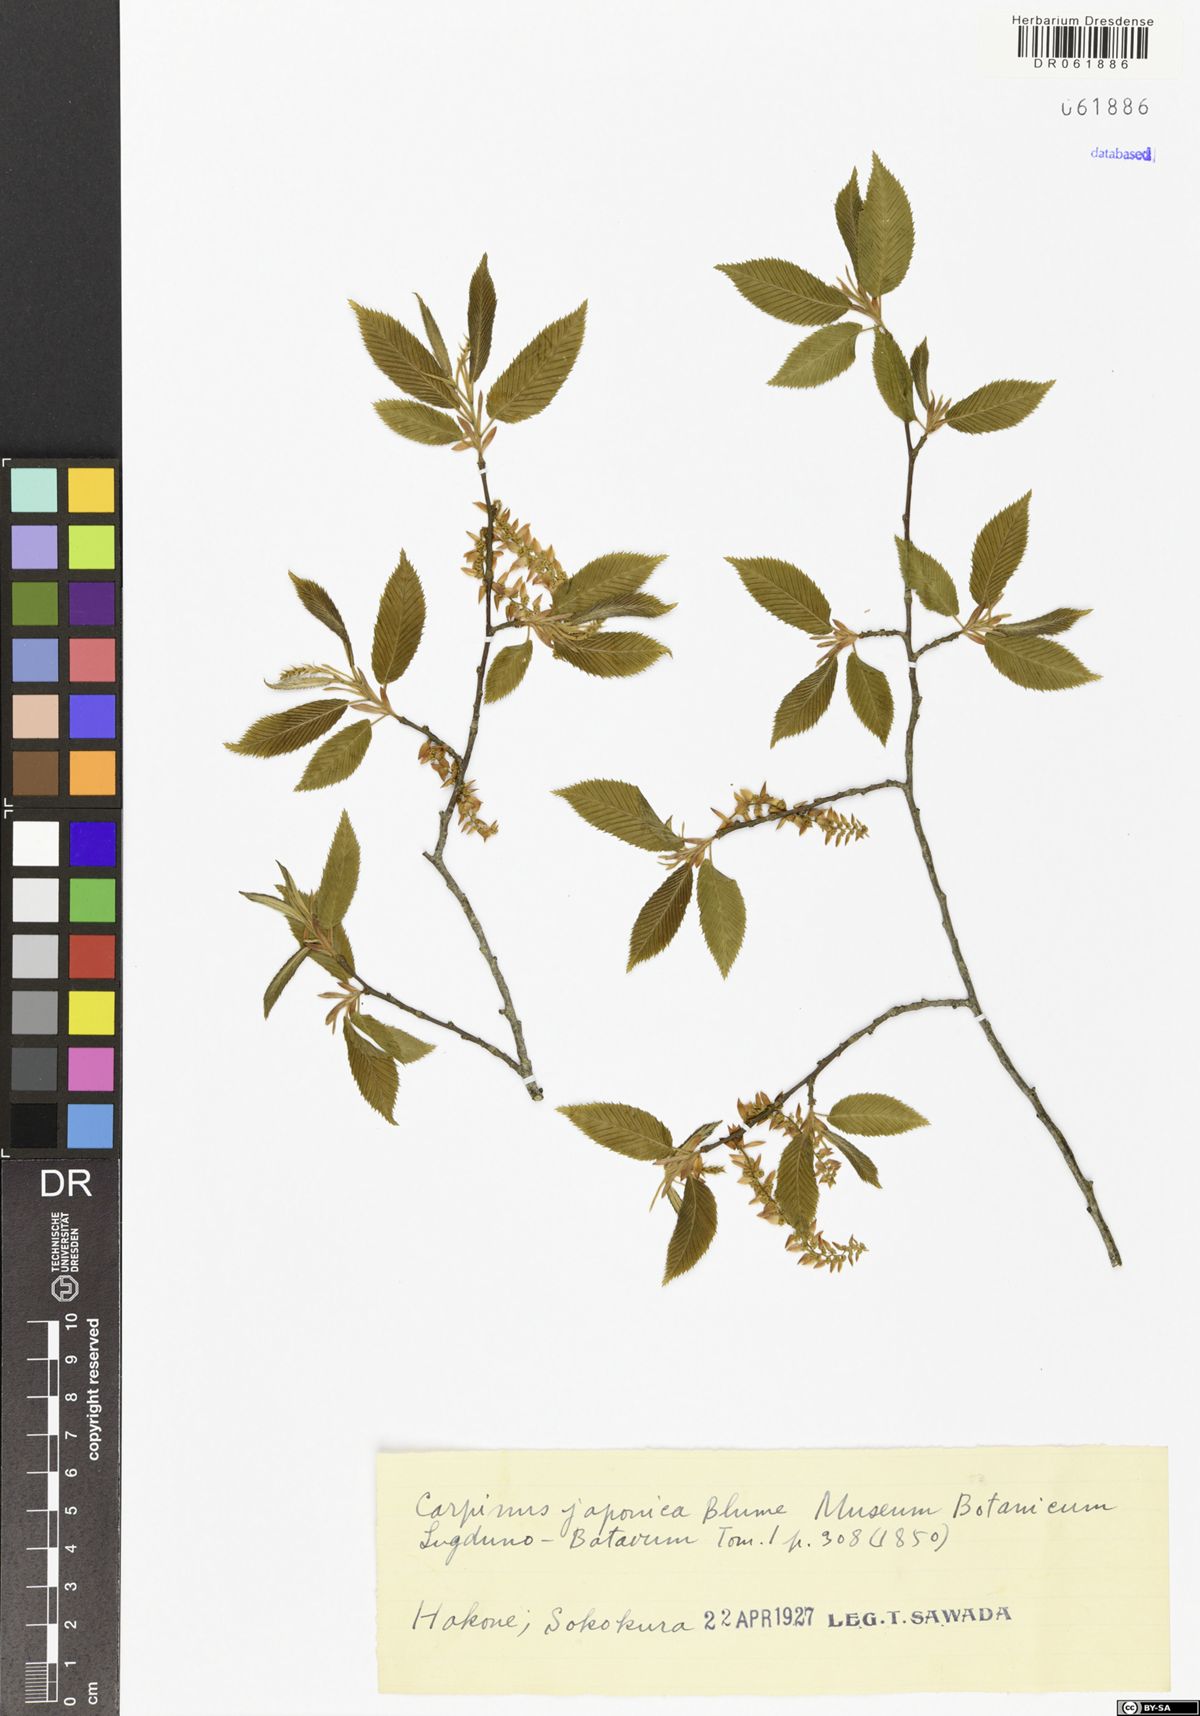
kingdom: Plantae
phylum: Tracheophyta
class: Magnoliopsida
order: Fagales
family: Betulaceae
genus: Carpinus
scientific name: Carpinus japonica
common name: Japanese hornbeam
